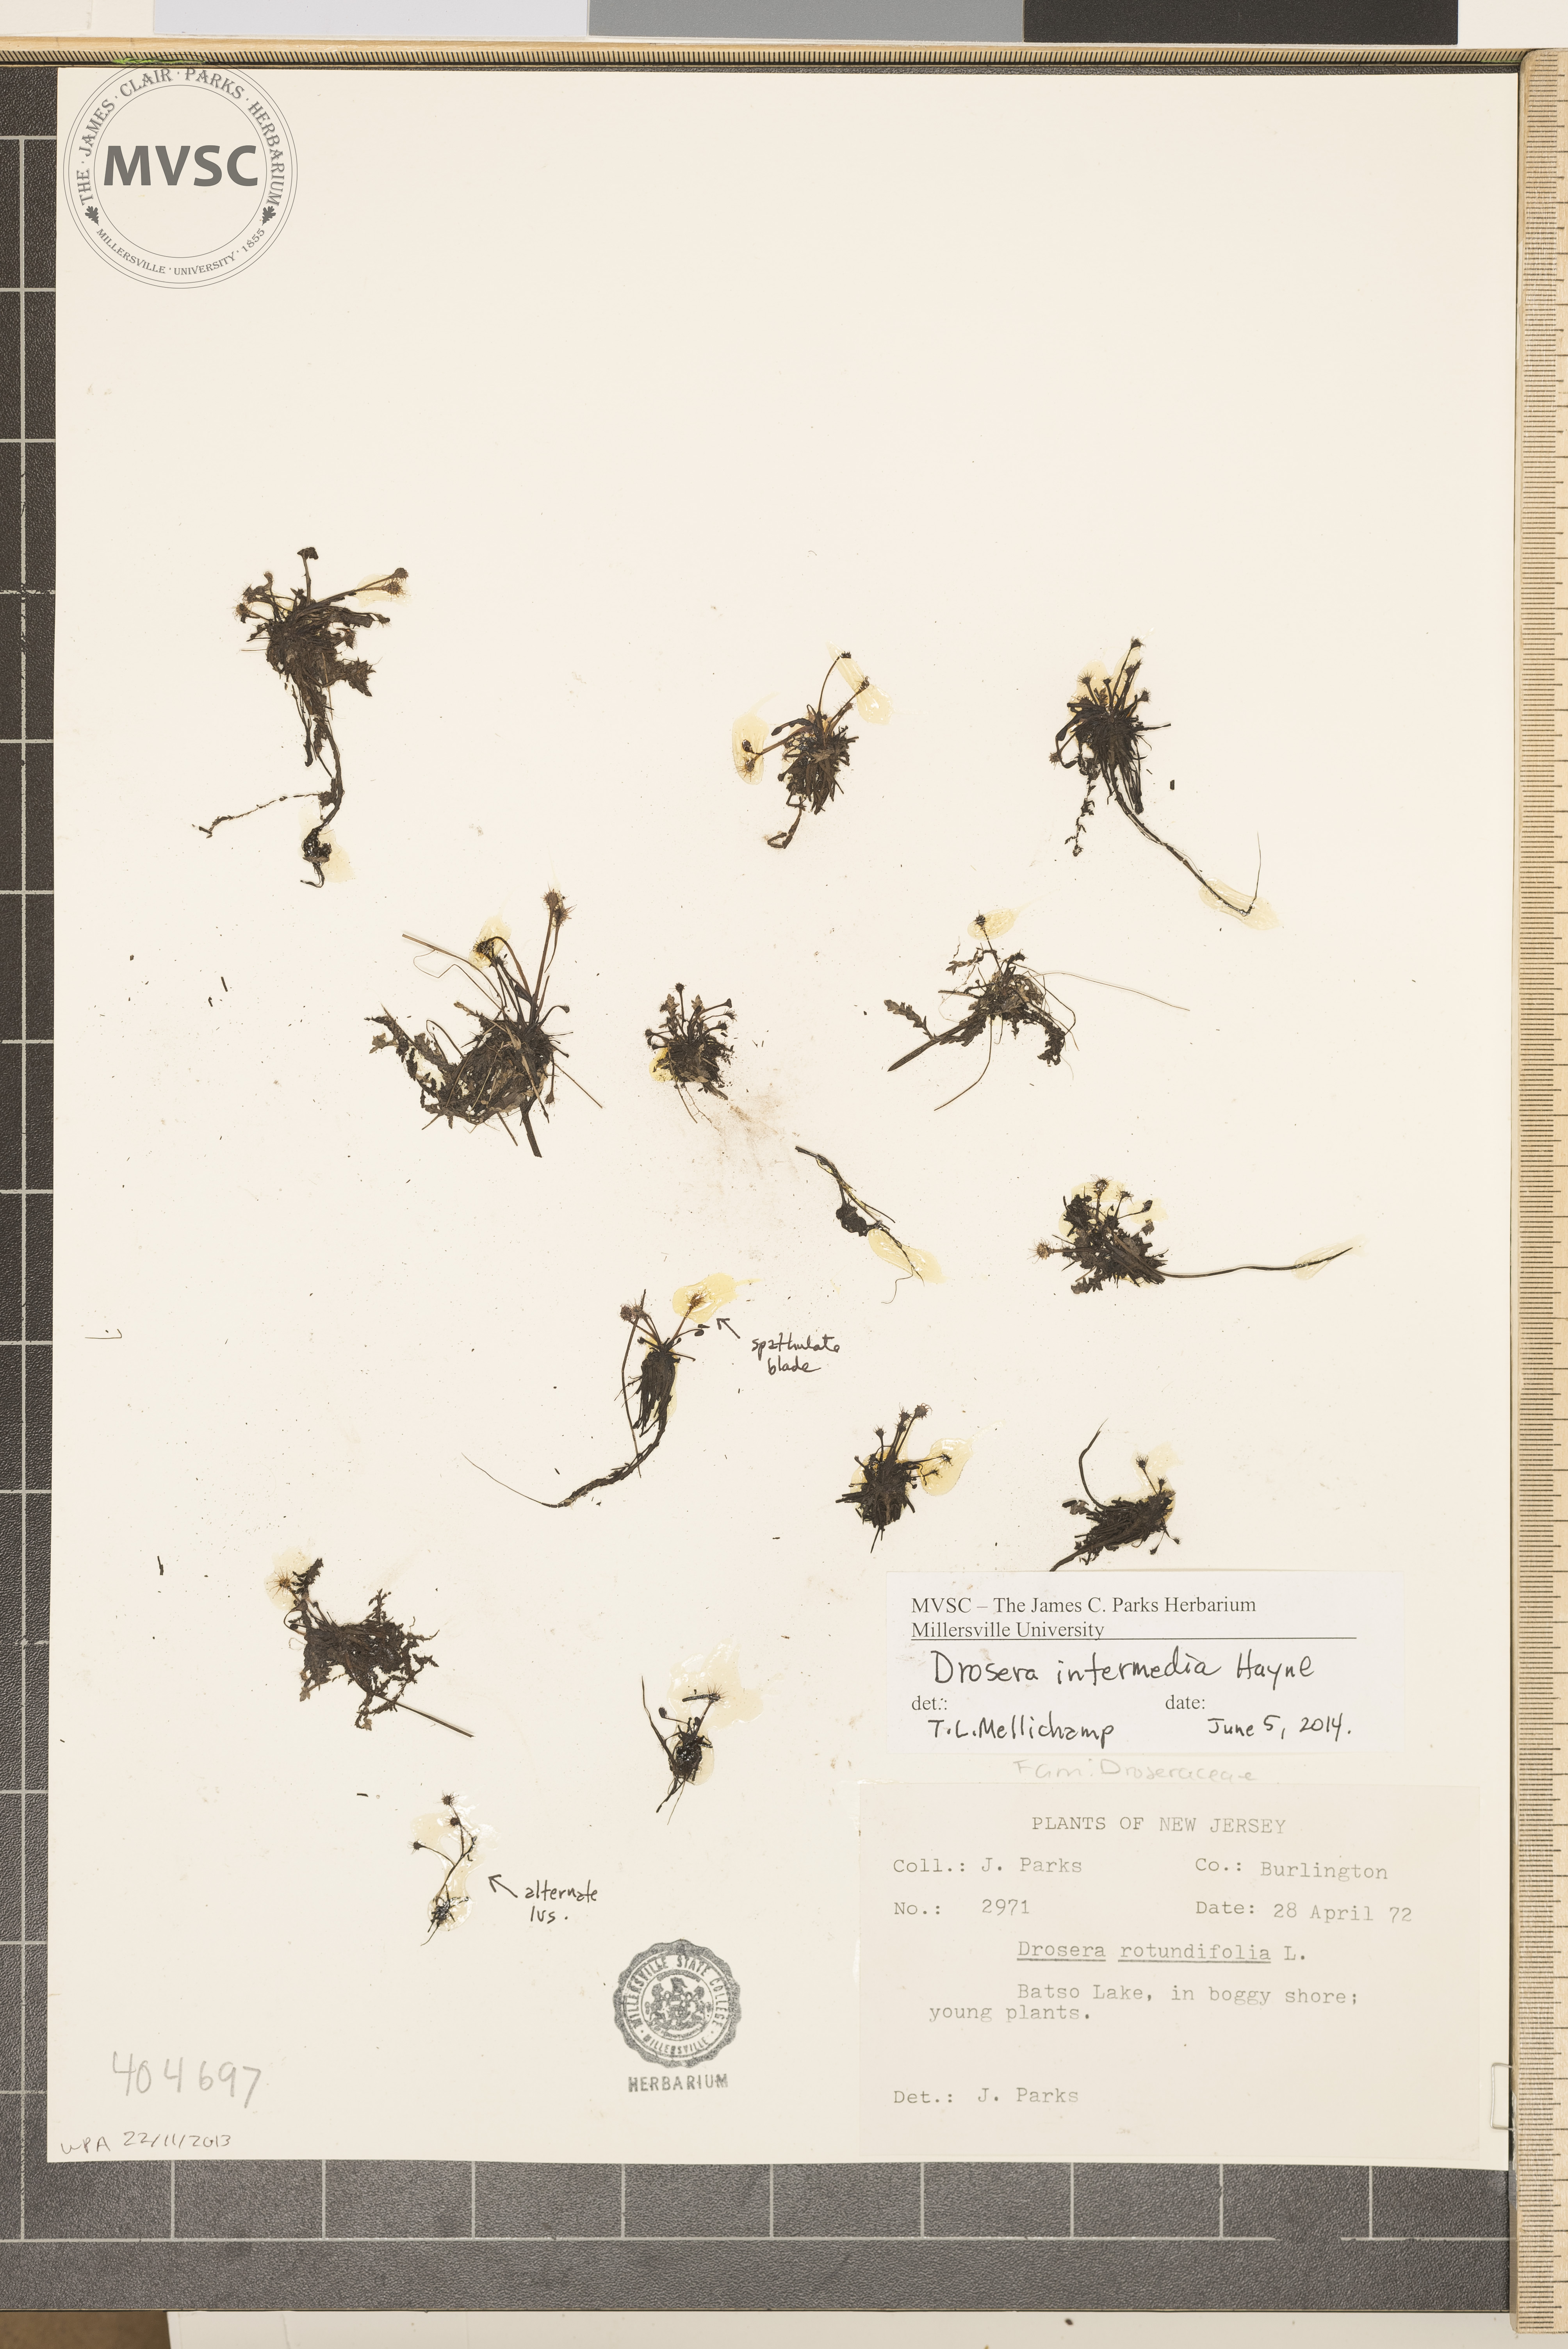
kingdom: Plantae
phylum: Tracheophyta
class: Magnoliopsida
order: Caryophyllales
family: Droseraceae
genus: Drosera
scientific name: Drosera intermedia
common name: Oblong-leaved sundew
